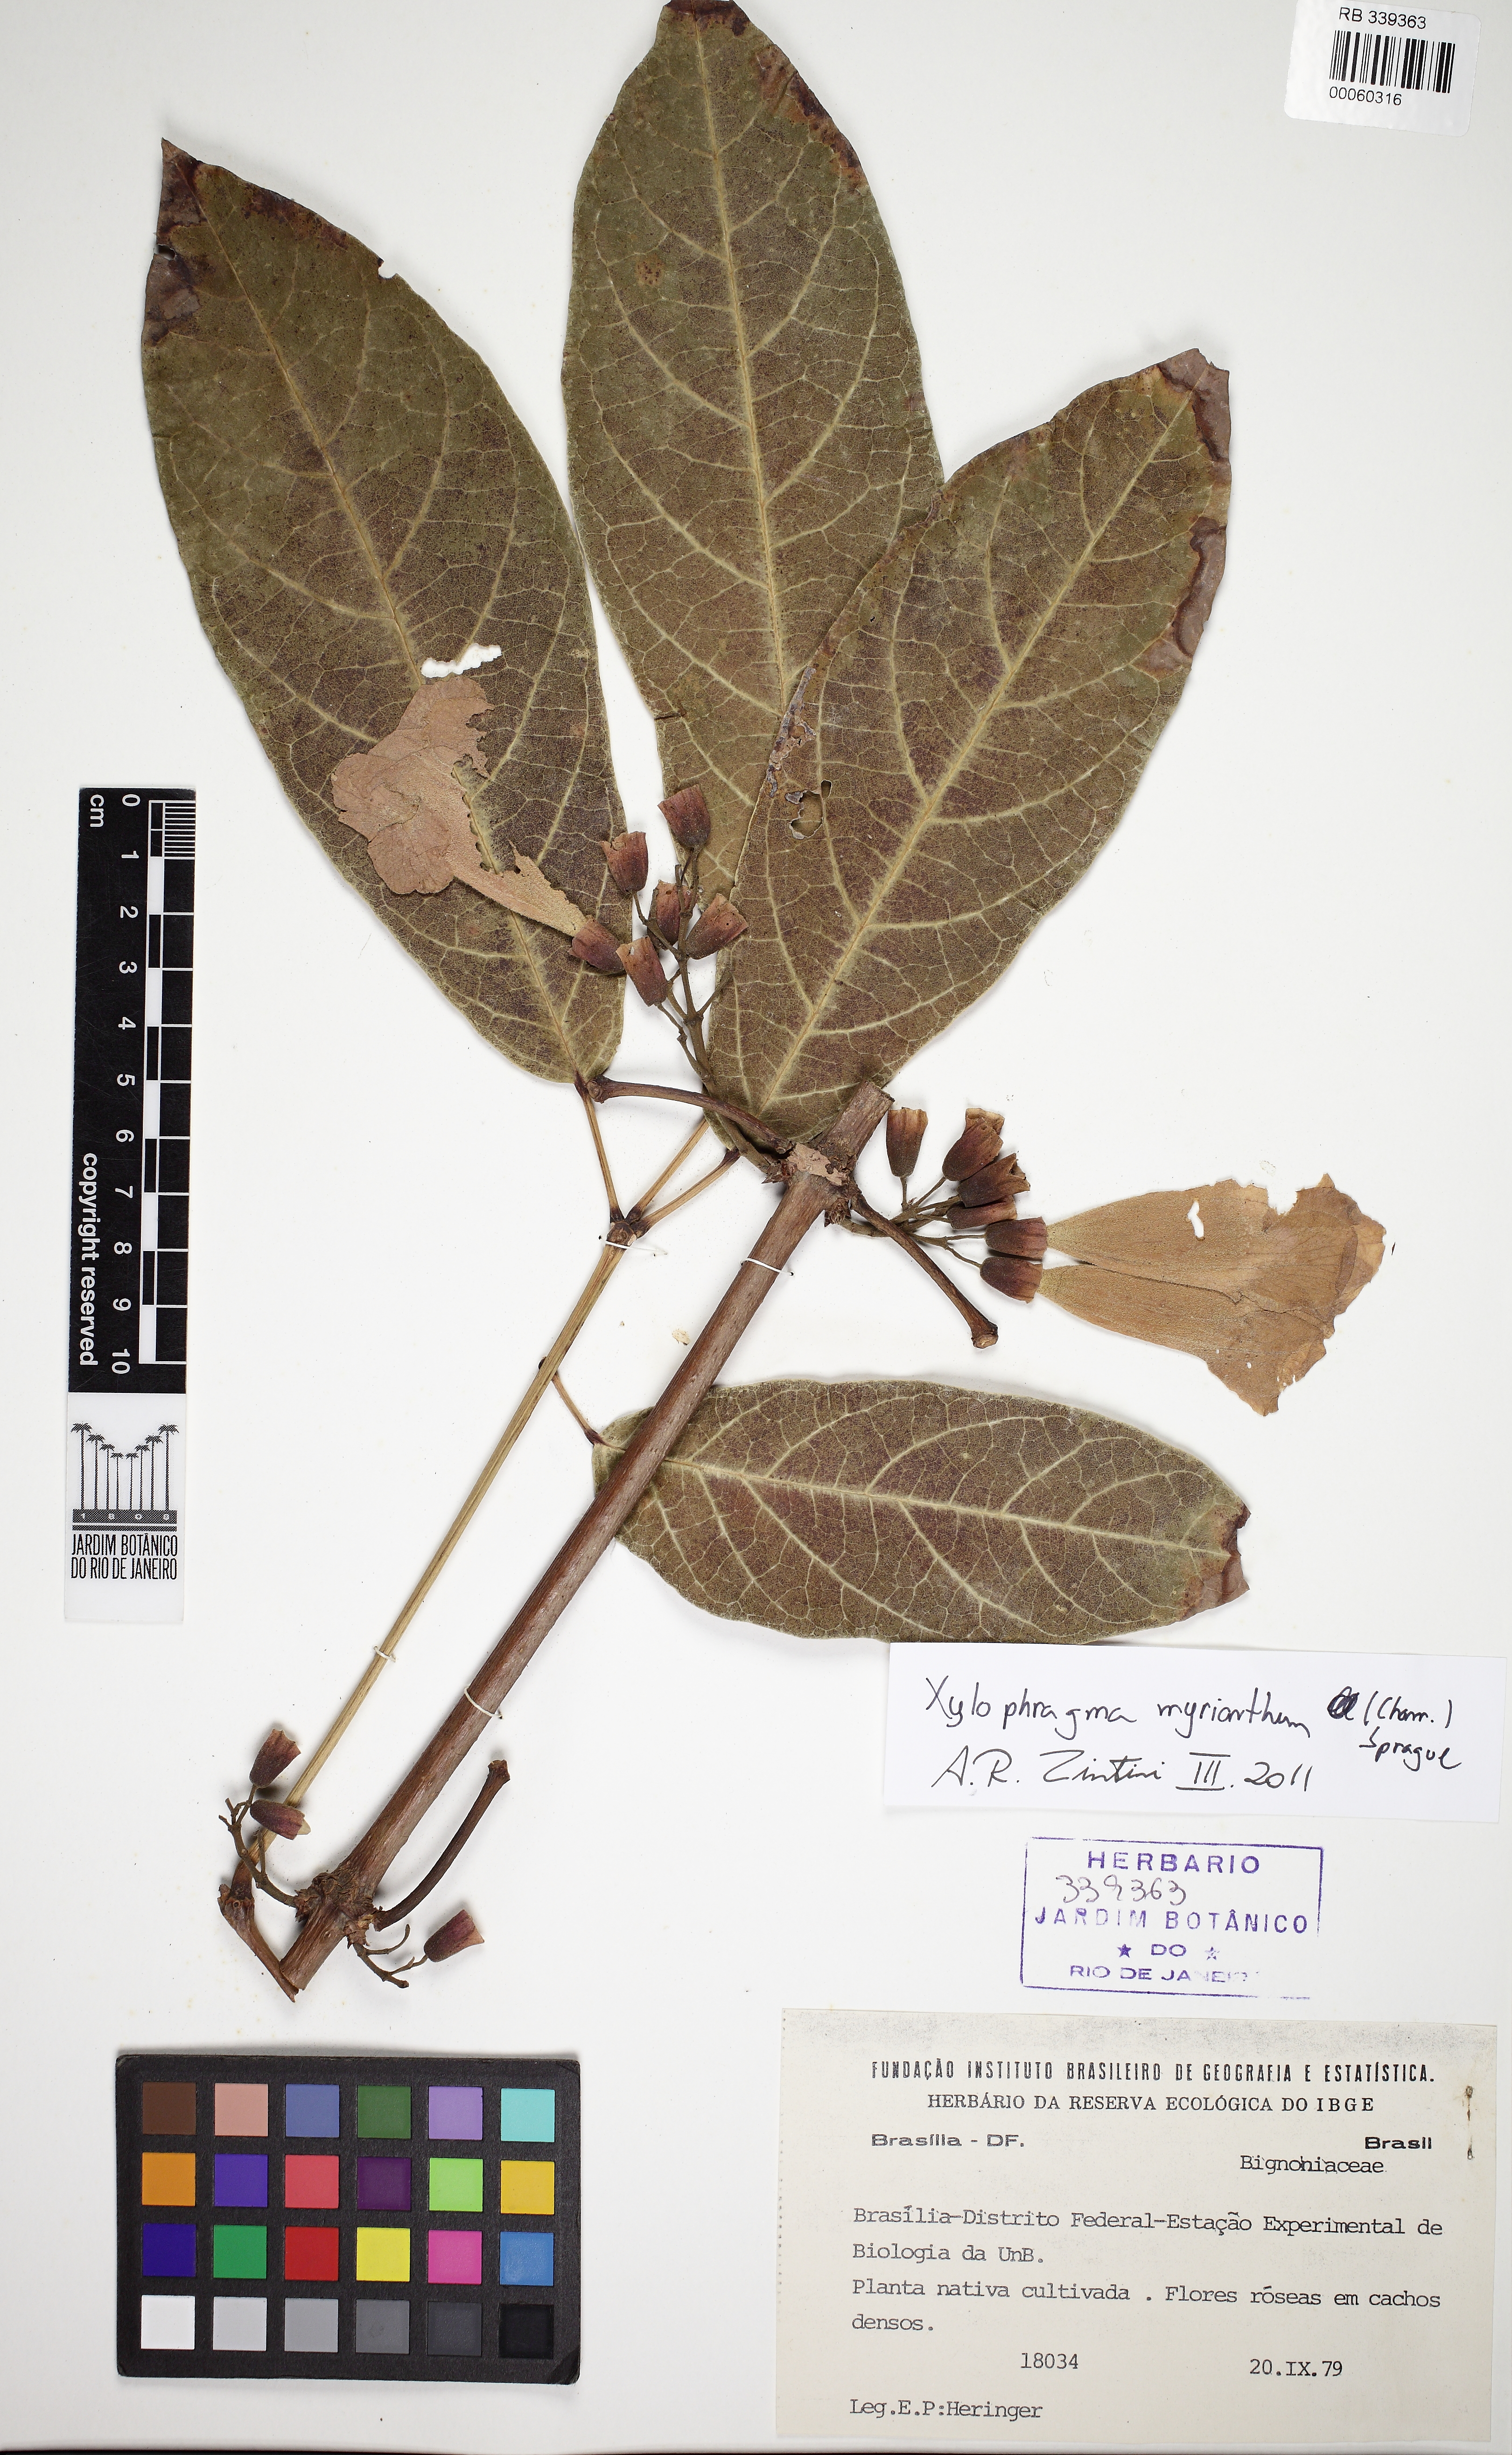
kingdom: Plantae
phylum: Tracheophyta
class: Magnoliopsida
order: Lamiales
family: Bignoniaceae
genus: Xylophragma
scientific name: Xylophragma myrianthum
